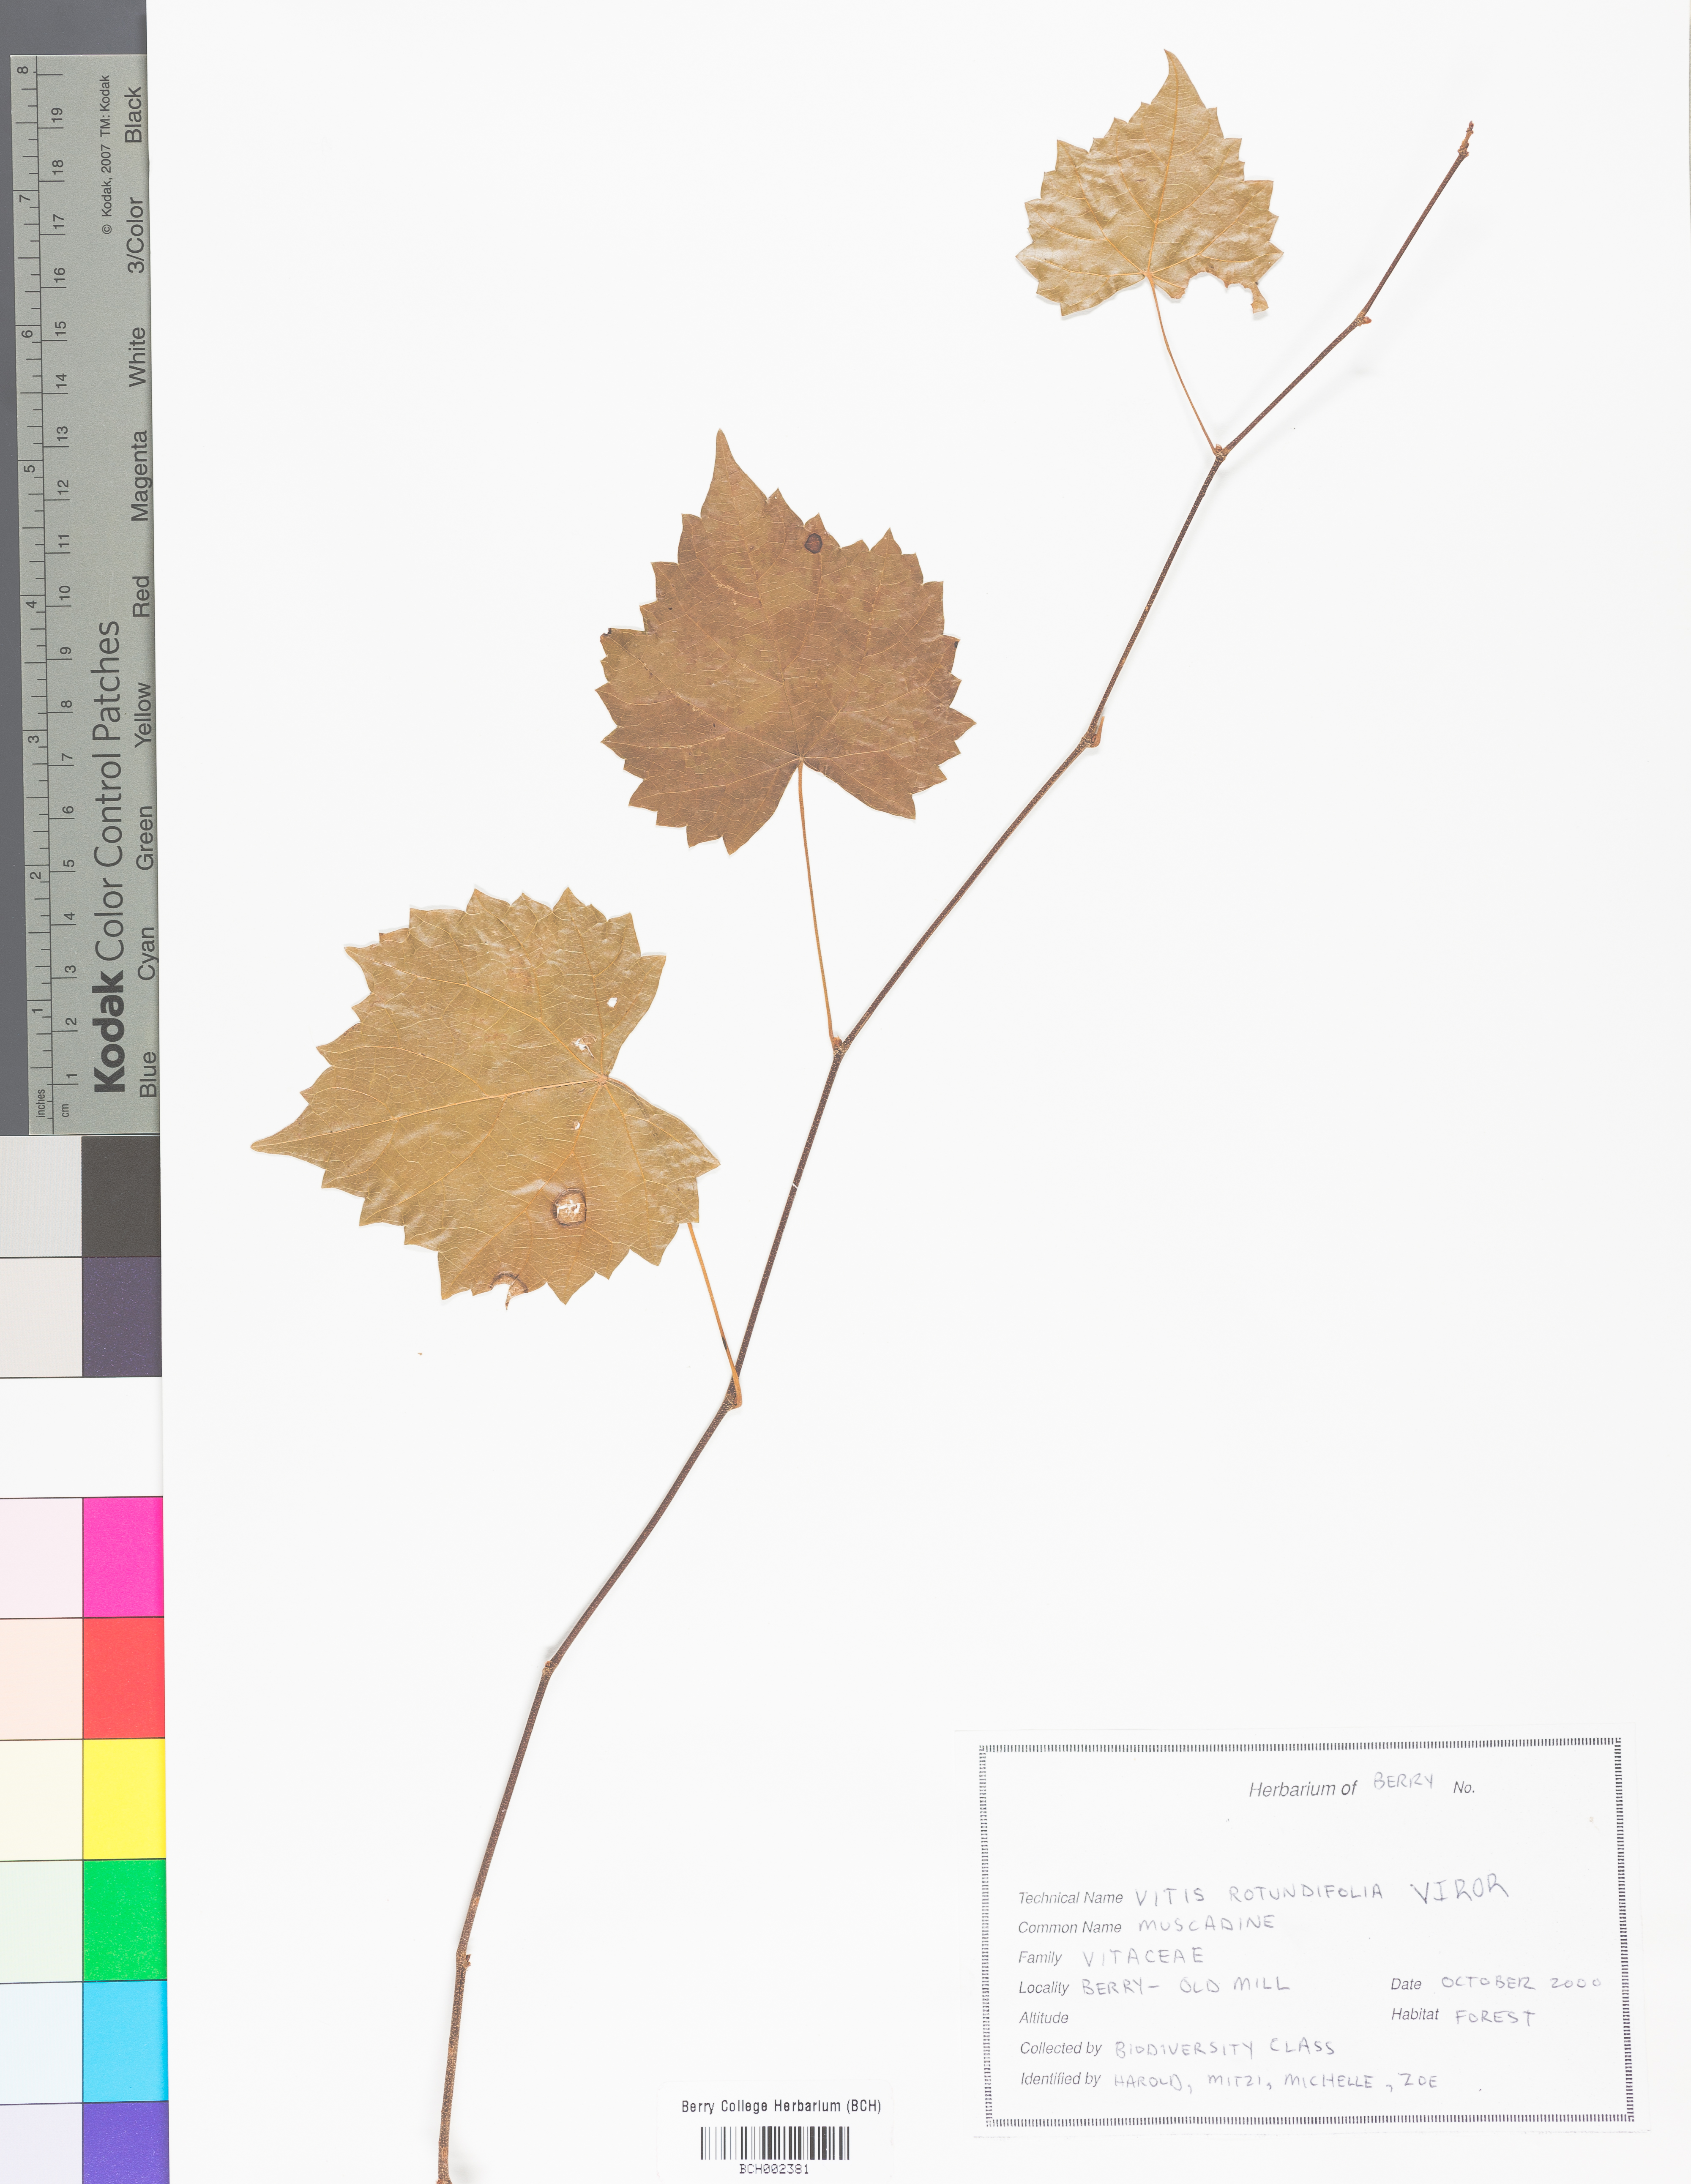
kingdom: Plantae
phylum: Tracheophyta
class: Magnoliopsida
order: Vitales
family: Vitaceae
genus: Vitis
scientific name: Vitis rotundifolia
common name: Muscadine grape
